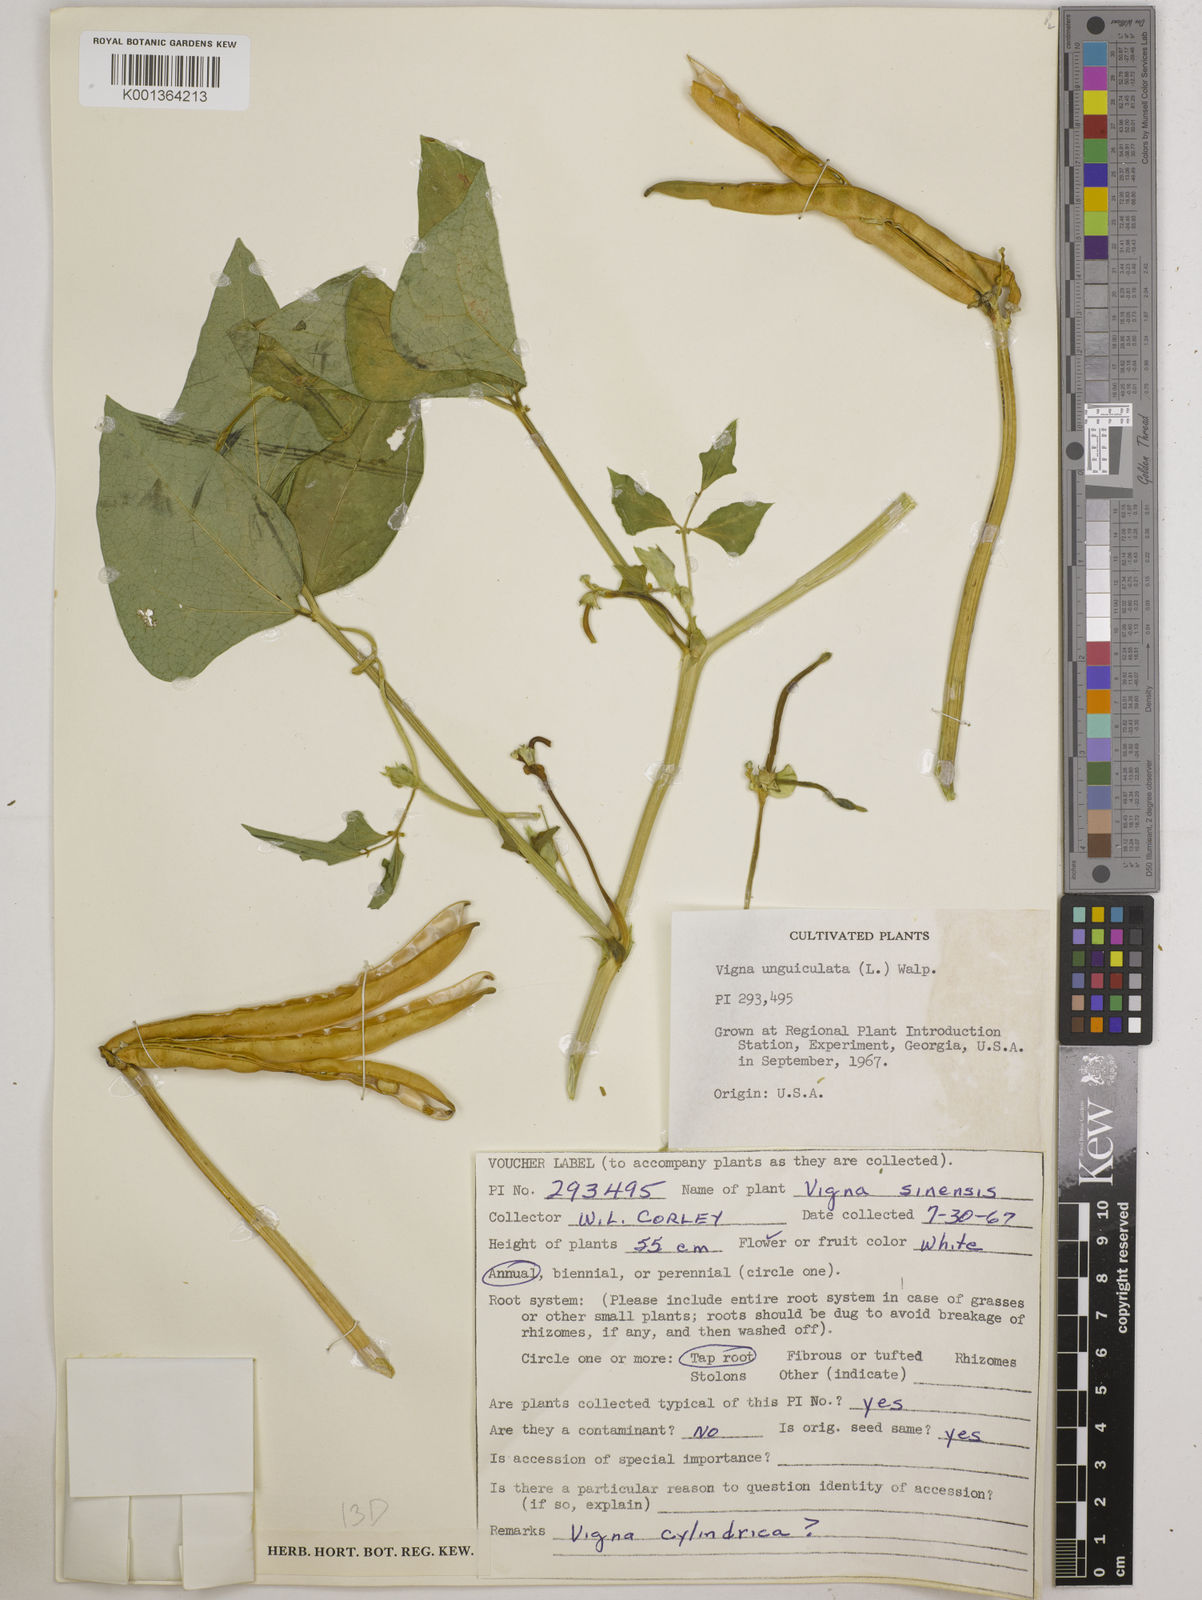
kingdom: Plantae
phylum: Tracheophyta
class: Magnoliopsida
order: Fabales
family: Fabaceae
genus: Vigna
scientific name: Vigna
